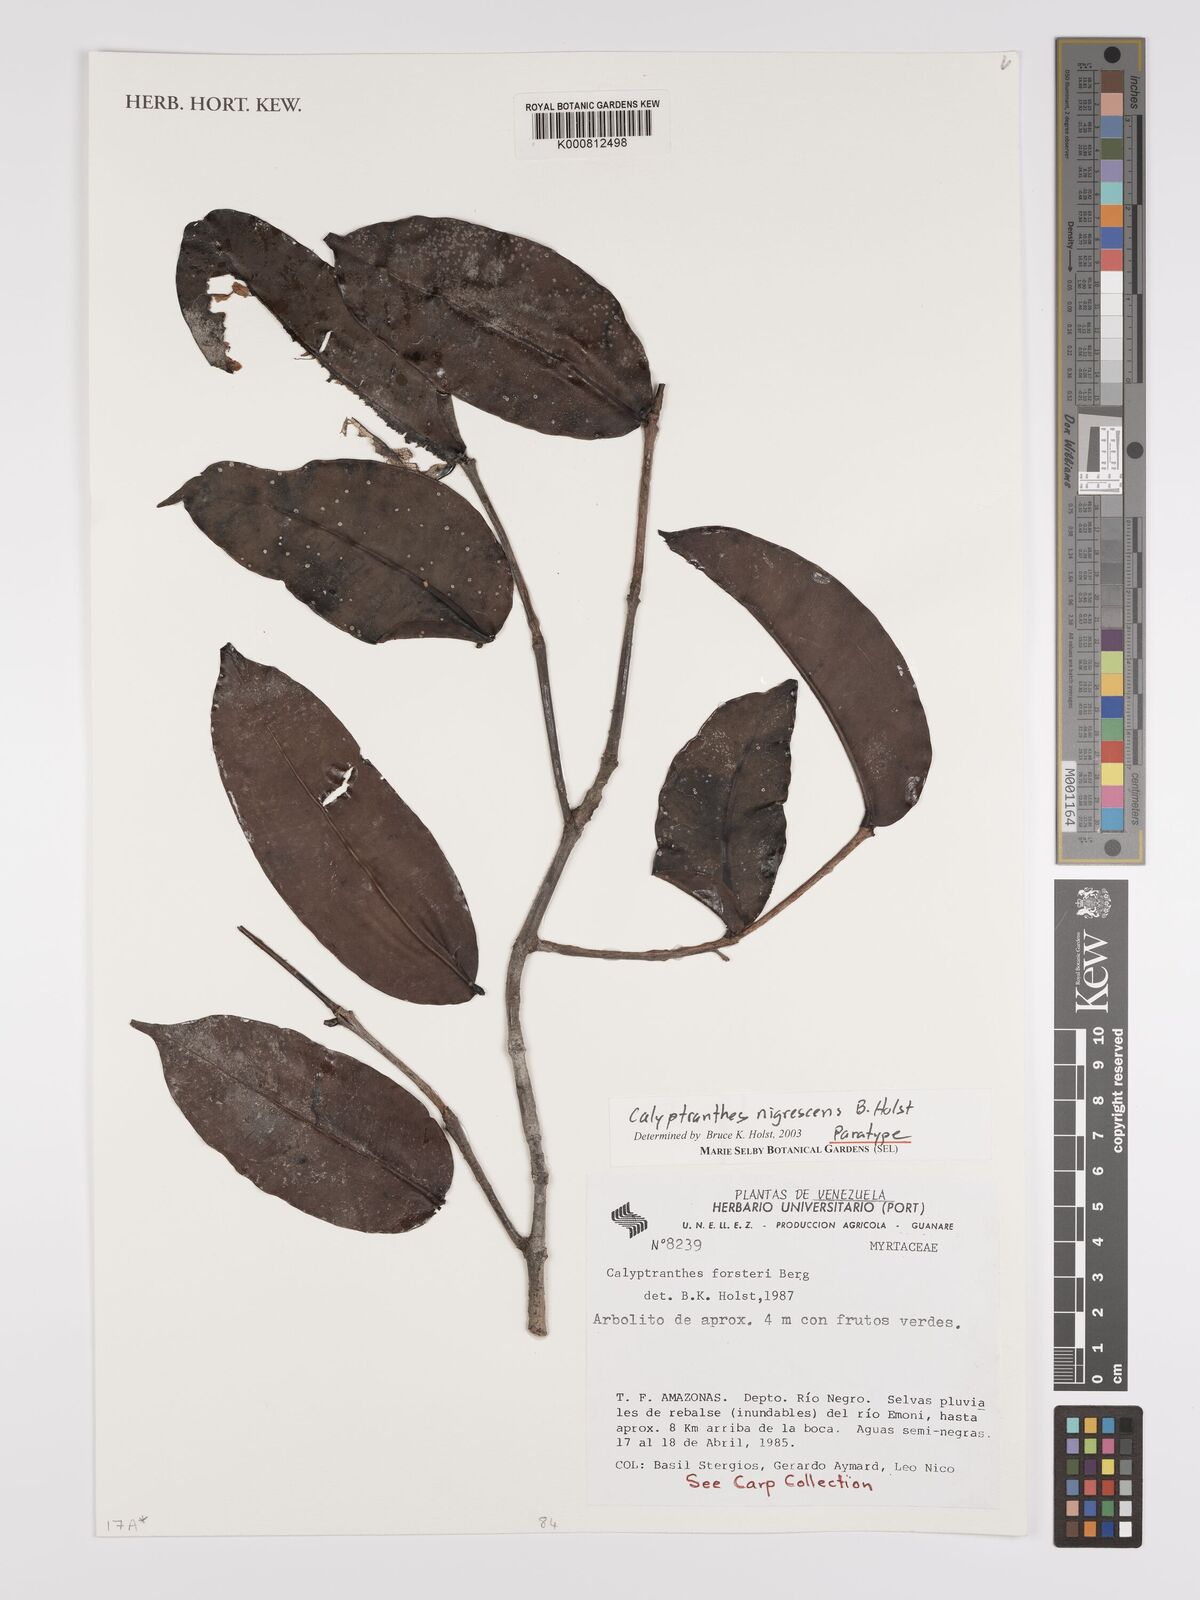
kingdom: Plantae
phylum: Tracheophyta
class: Magnoliopsida
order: Myrtales
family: Myrtaceae
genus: Myrcia
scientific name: Myrcia celaenensis
